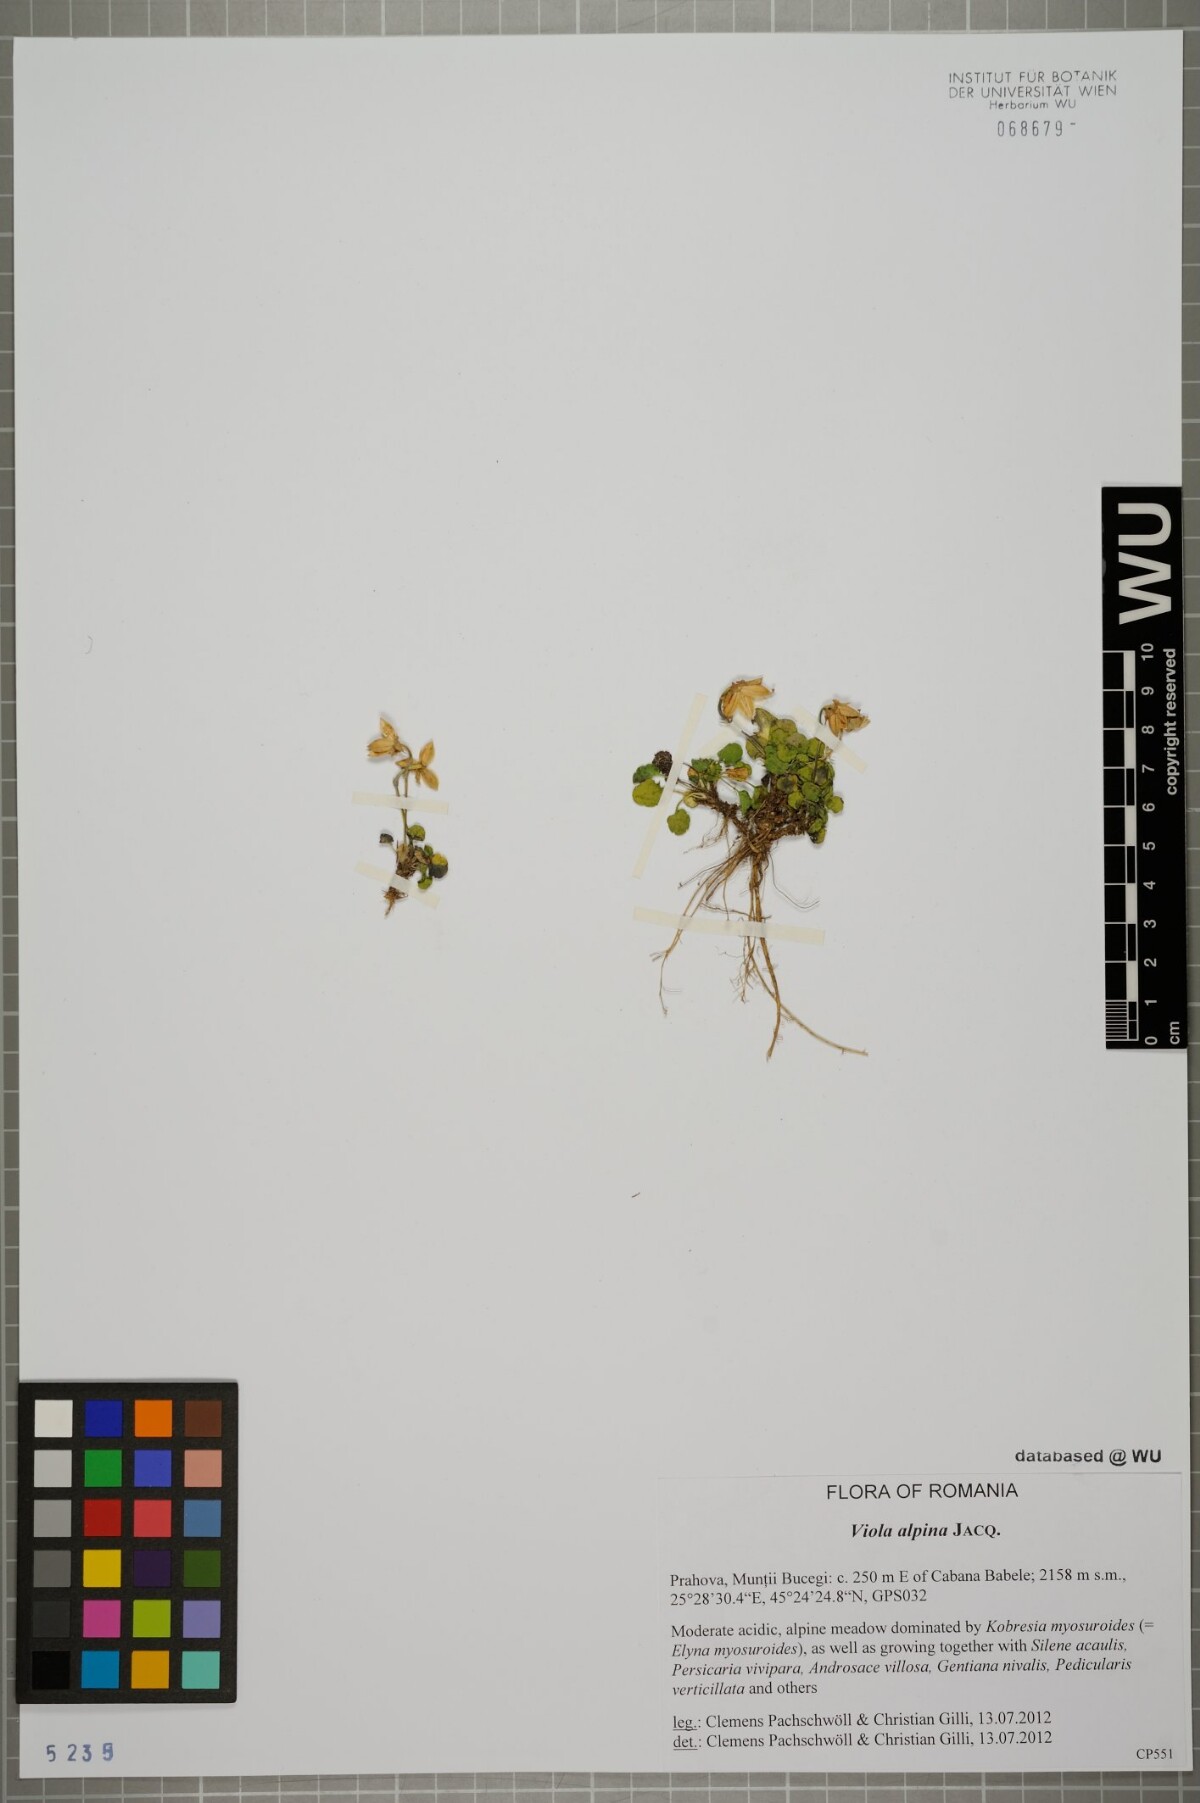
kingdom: Plantae
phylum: Tracheophyta
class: Magnoliopsida
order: Malpighiales
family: Violaceae
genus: Viola
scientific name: Viola alpina
